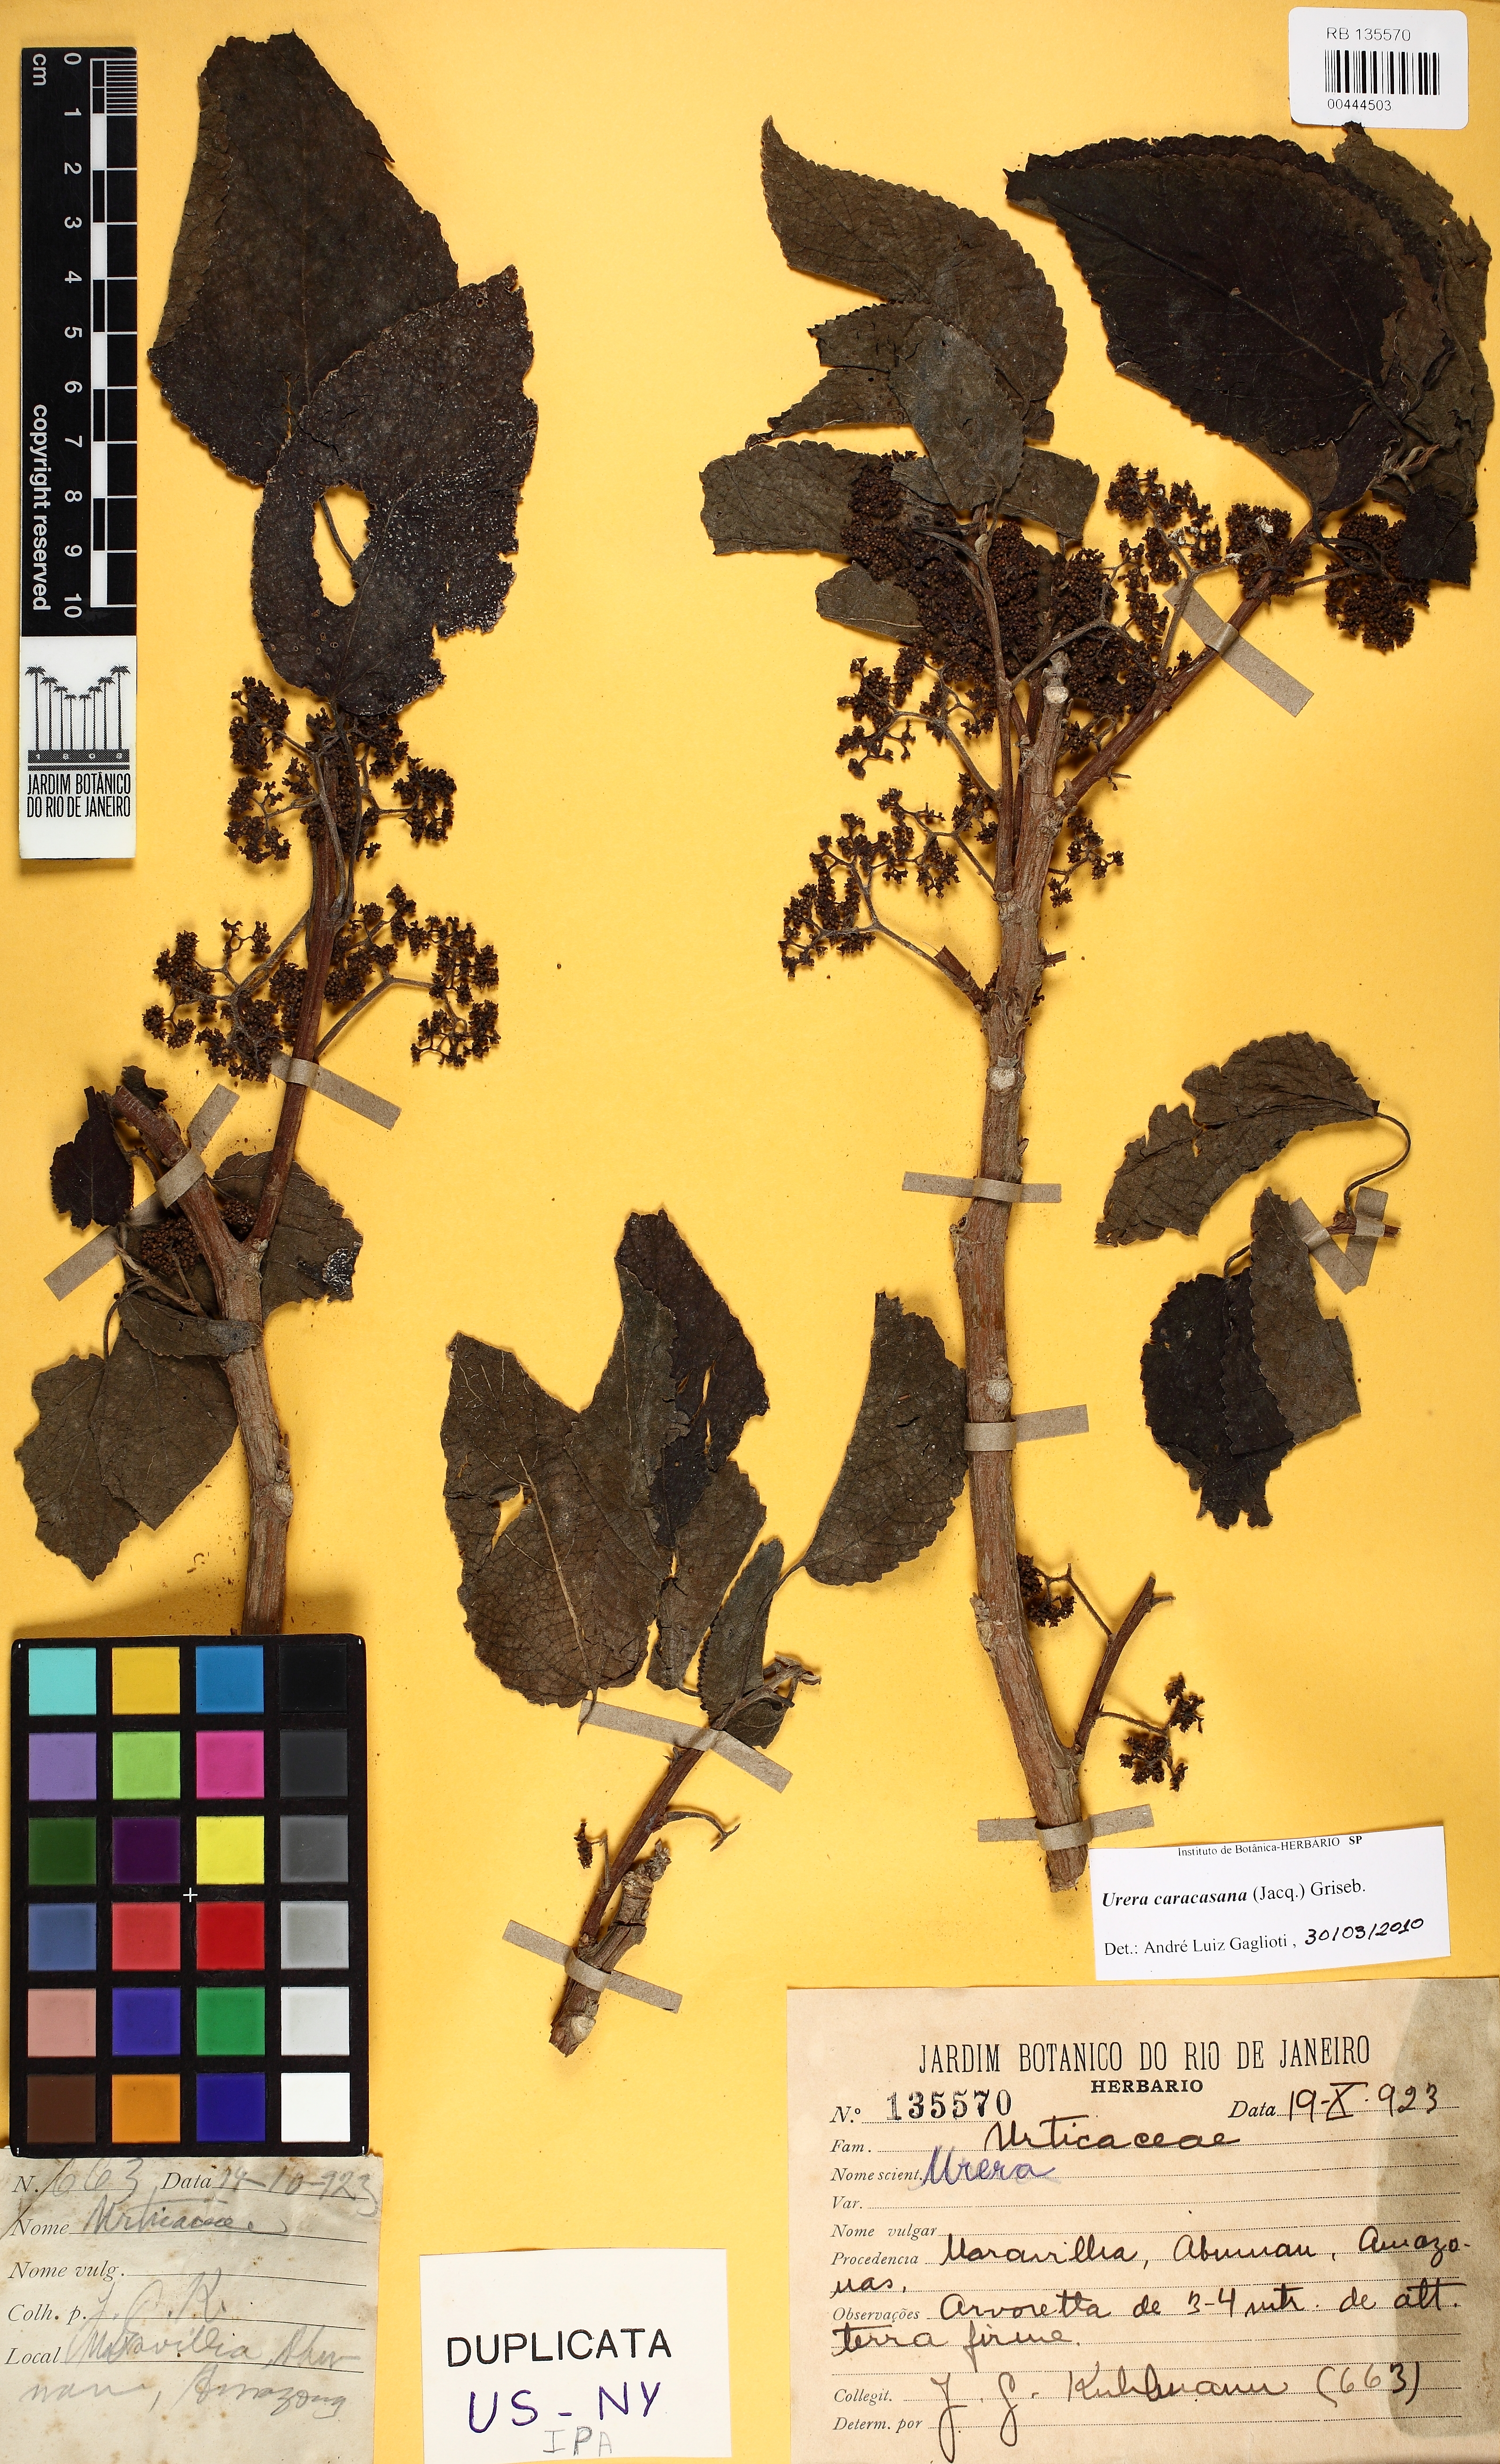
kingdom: Plantae
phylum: Tracheophyta
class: Magnoliopsida
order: Rosales
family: Urticaceae
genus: Urera
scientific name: Urera caracasana
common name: Flameberry
